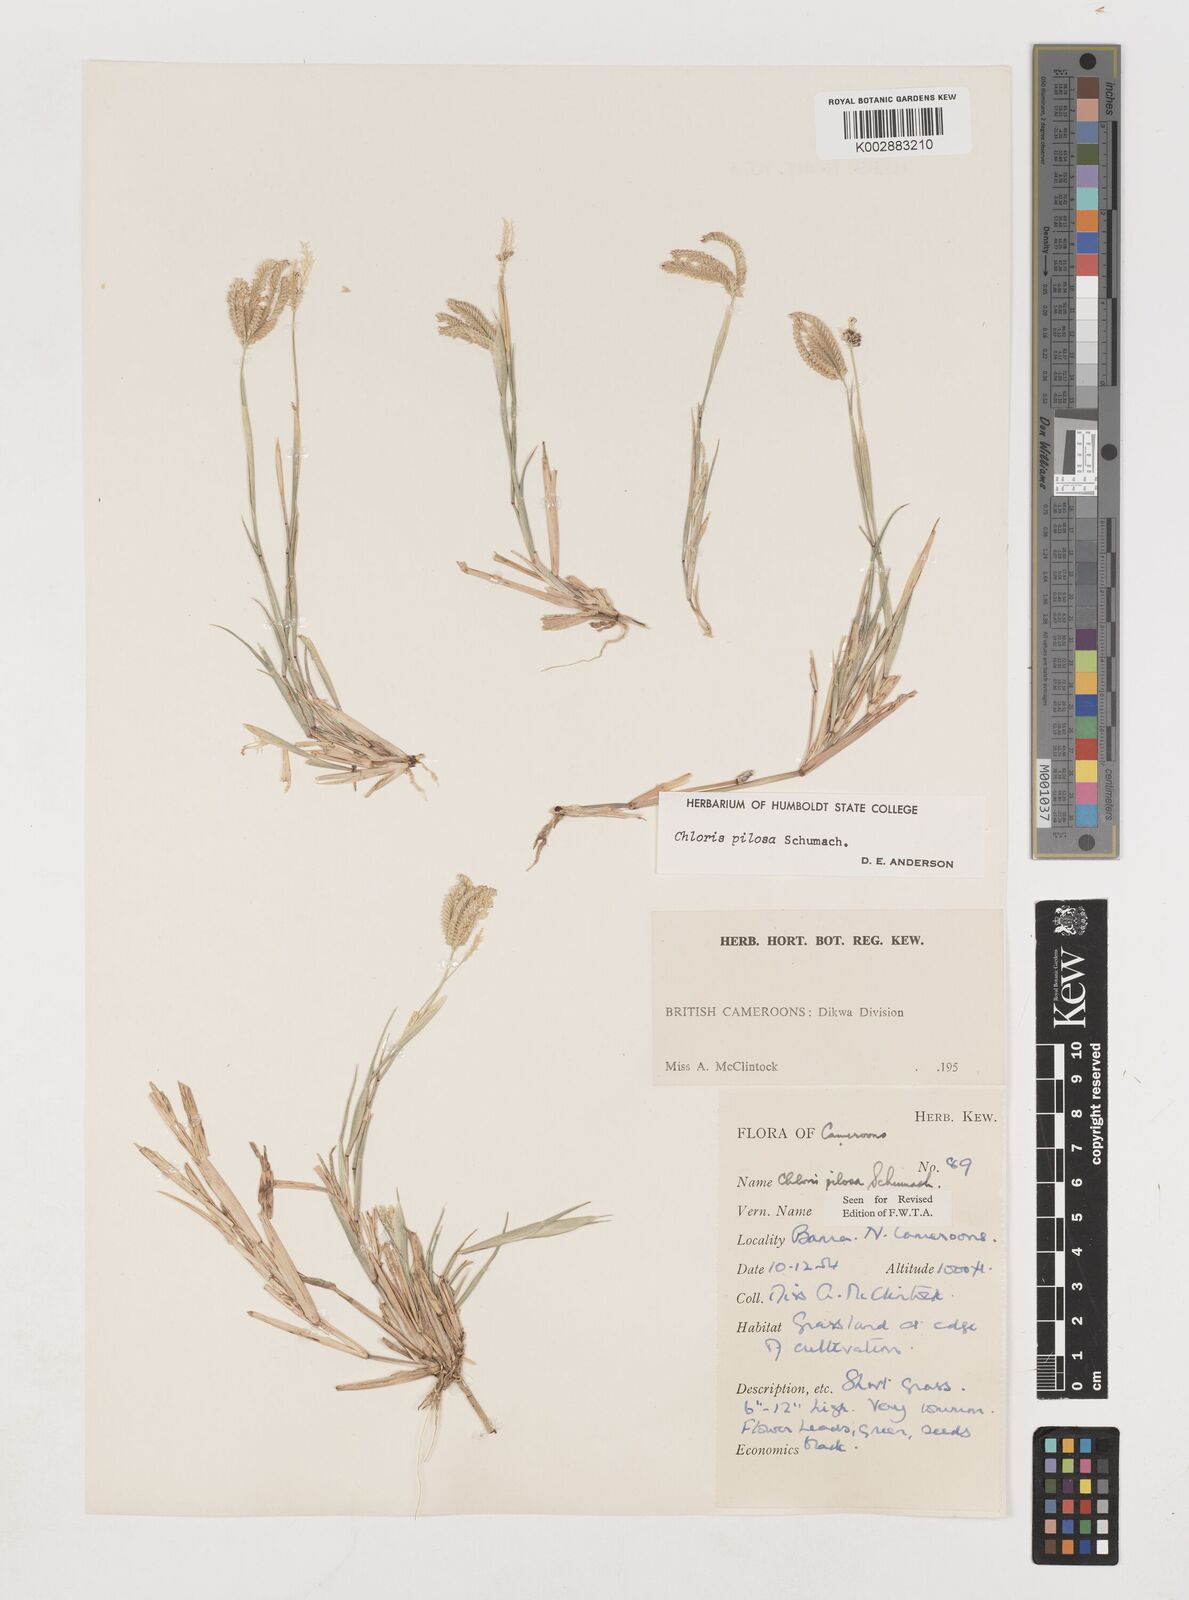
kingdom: Plantae
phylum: Tracheophyta
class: Liliopsida
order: Poales
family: Poaceae
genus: Chloris
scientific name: Chloris pilosa
